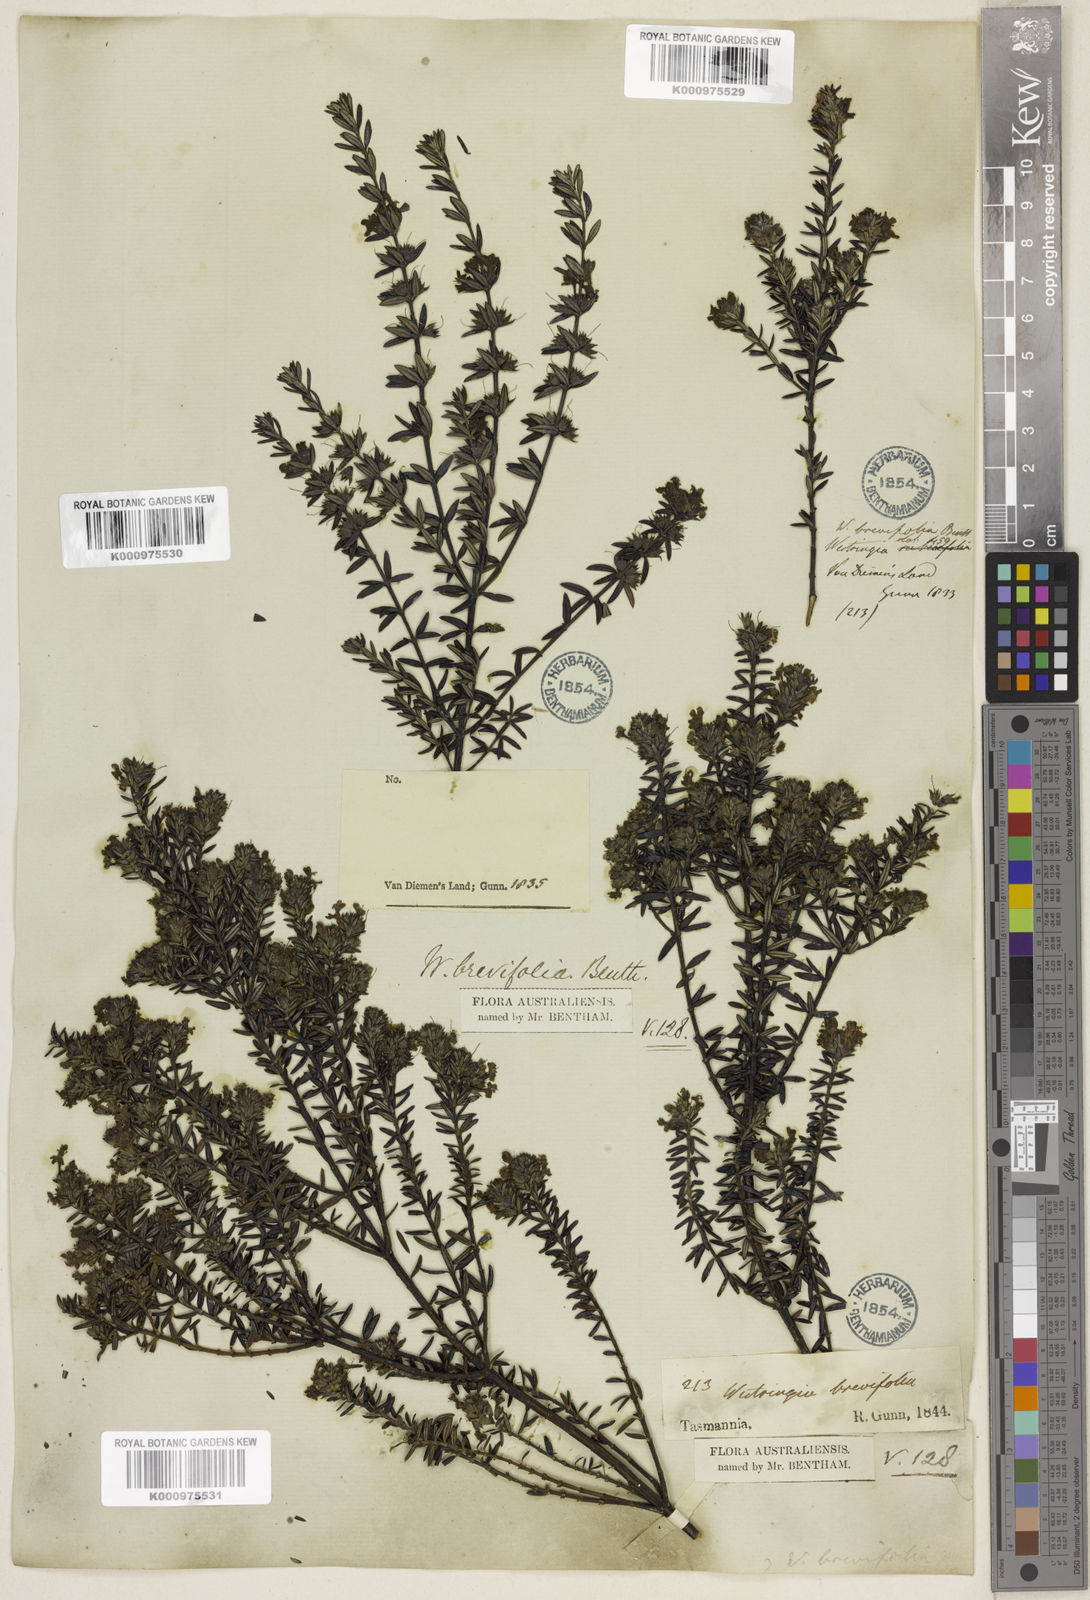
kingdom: Plantae
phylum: Tracheophyta
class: Magnoliopsida
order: Lamiales
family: Lamiaceae
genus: Westringia
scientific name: Westringia brevifolia
